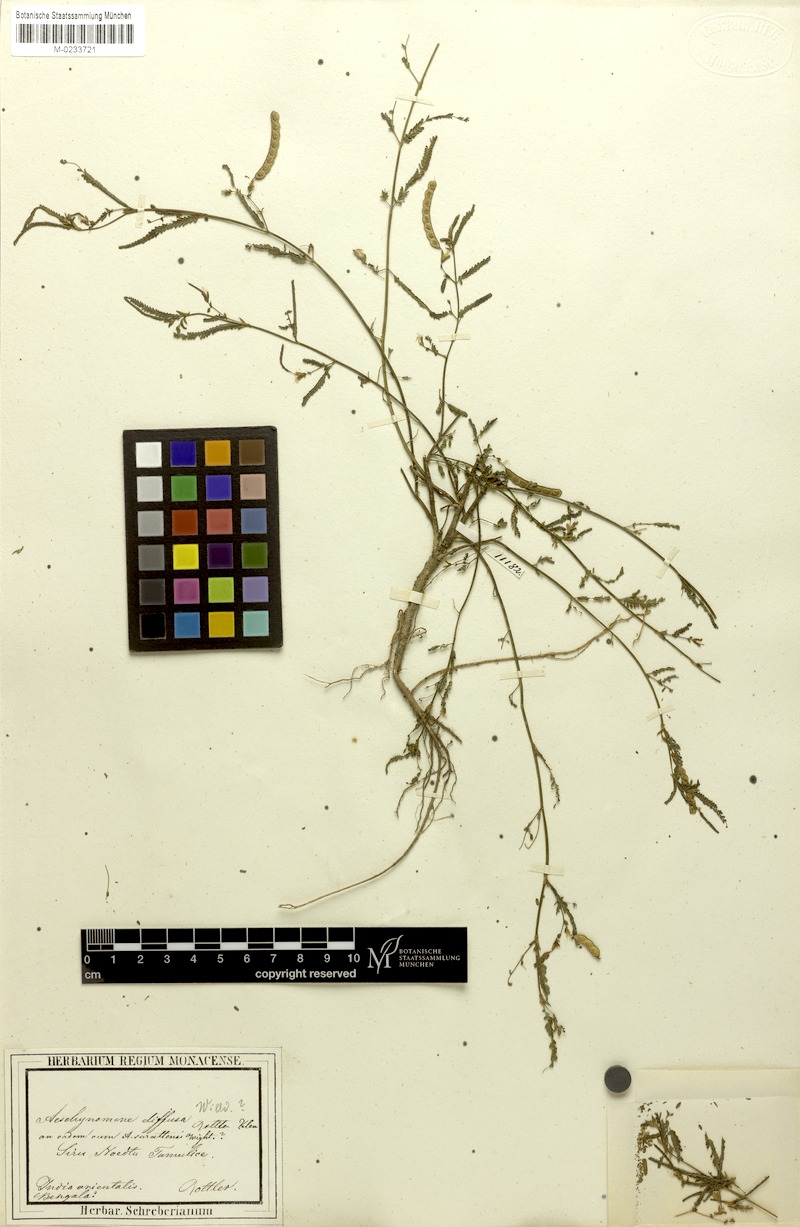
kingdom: Plantae
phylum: Tracheophyta
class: Magnoliopsida
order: Fabales
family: Fabaceae
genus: Aeschynomene
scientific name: Aeschynomene indica
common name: Indian jointvetch
